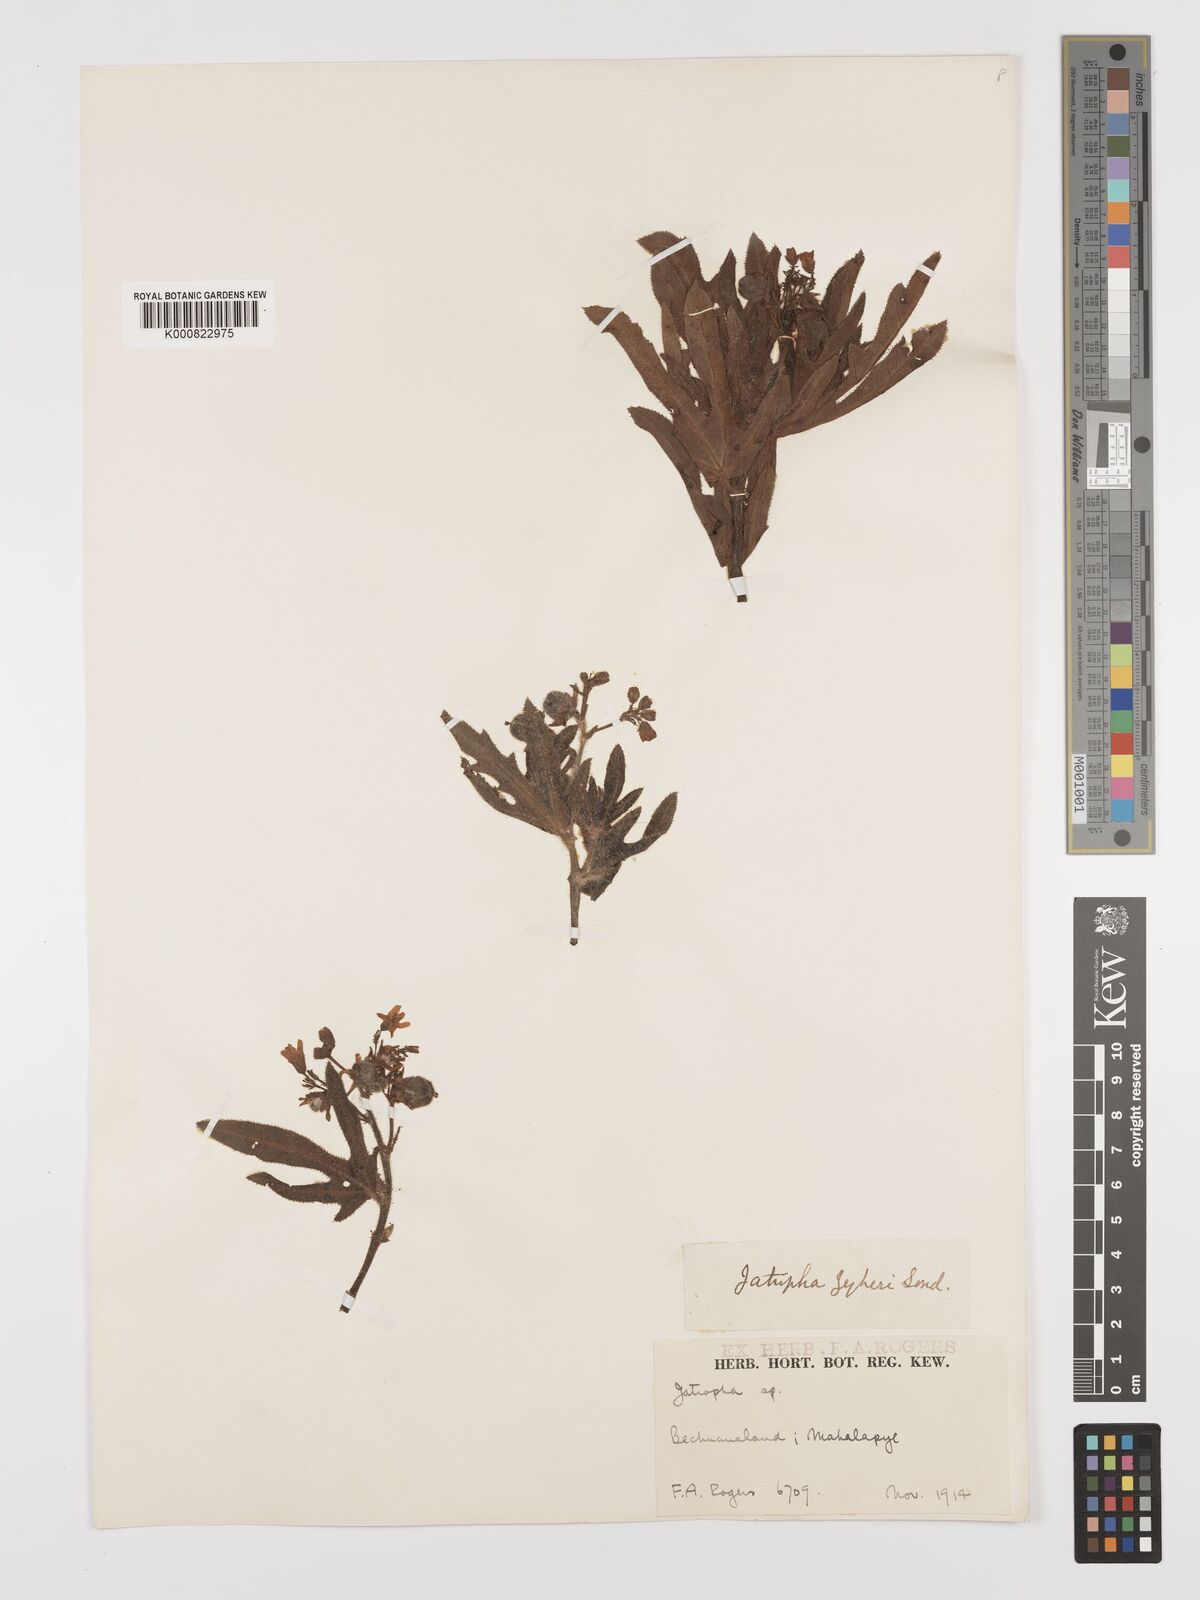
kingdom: Plantae
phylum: Tracheophyta
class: Magnoliopsida
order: Malpighiales
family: Euphorbiaceae
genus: Jatropha
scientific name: Jatropha zeyheri
